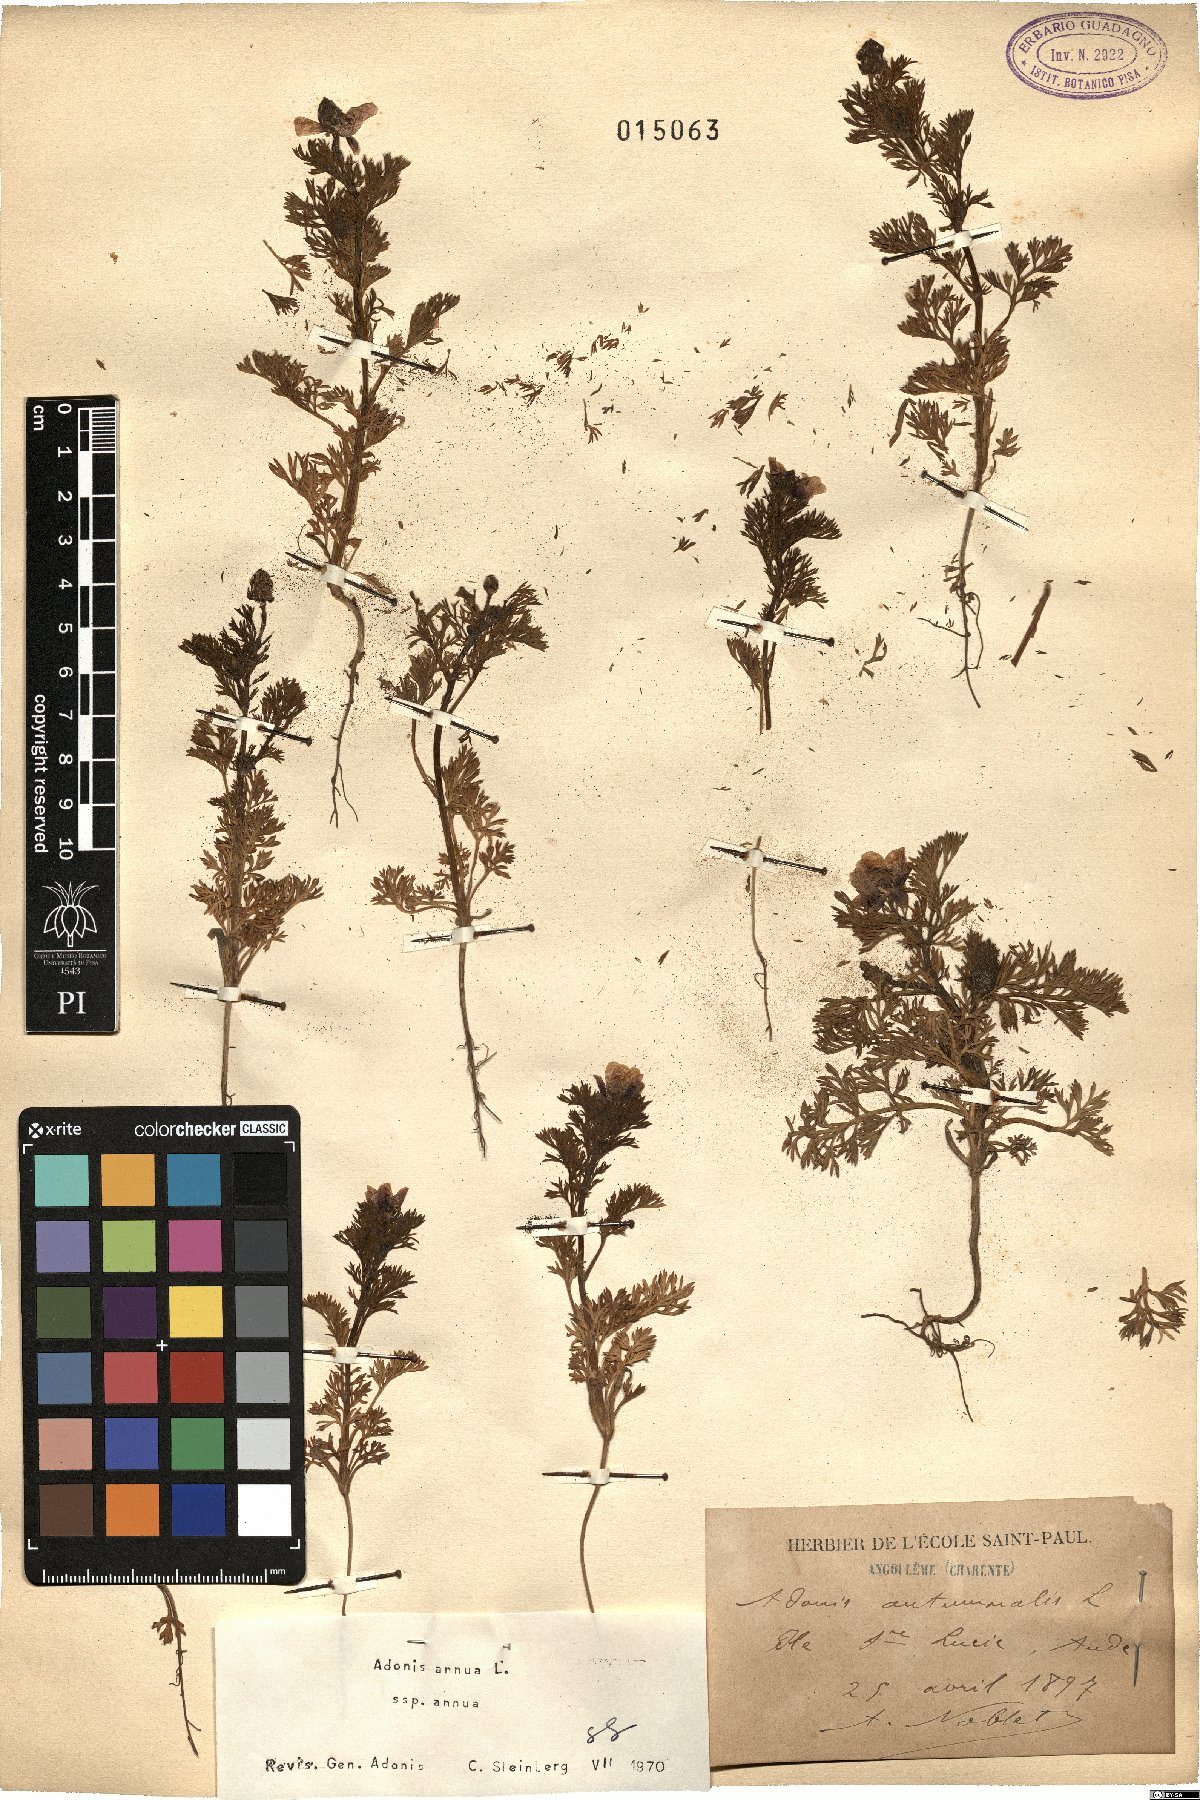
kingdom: Plantae
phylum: Tracheophyta
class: Magnoliopsida
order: Ranunculales
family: Ranunculaceae
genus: Adonis
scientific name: Adonis annua
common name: Pheasant's-eye
